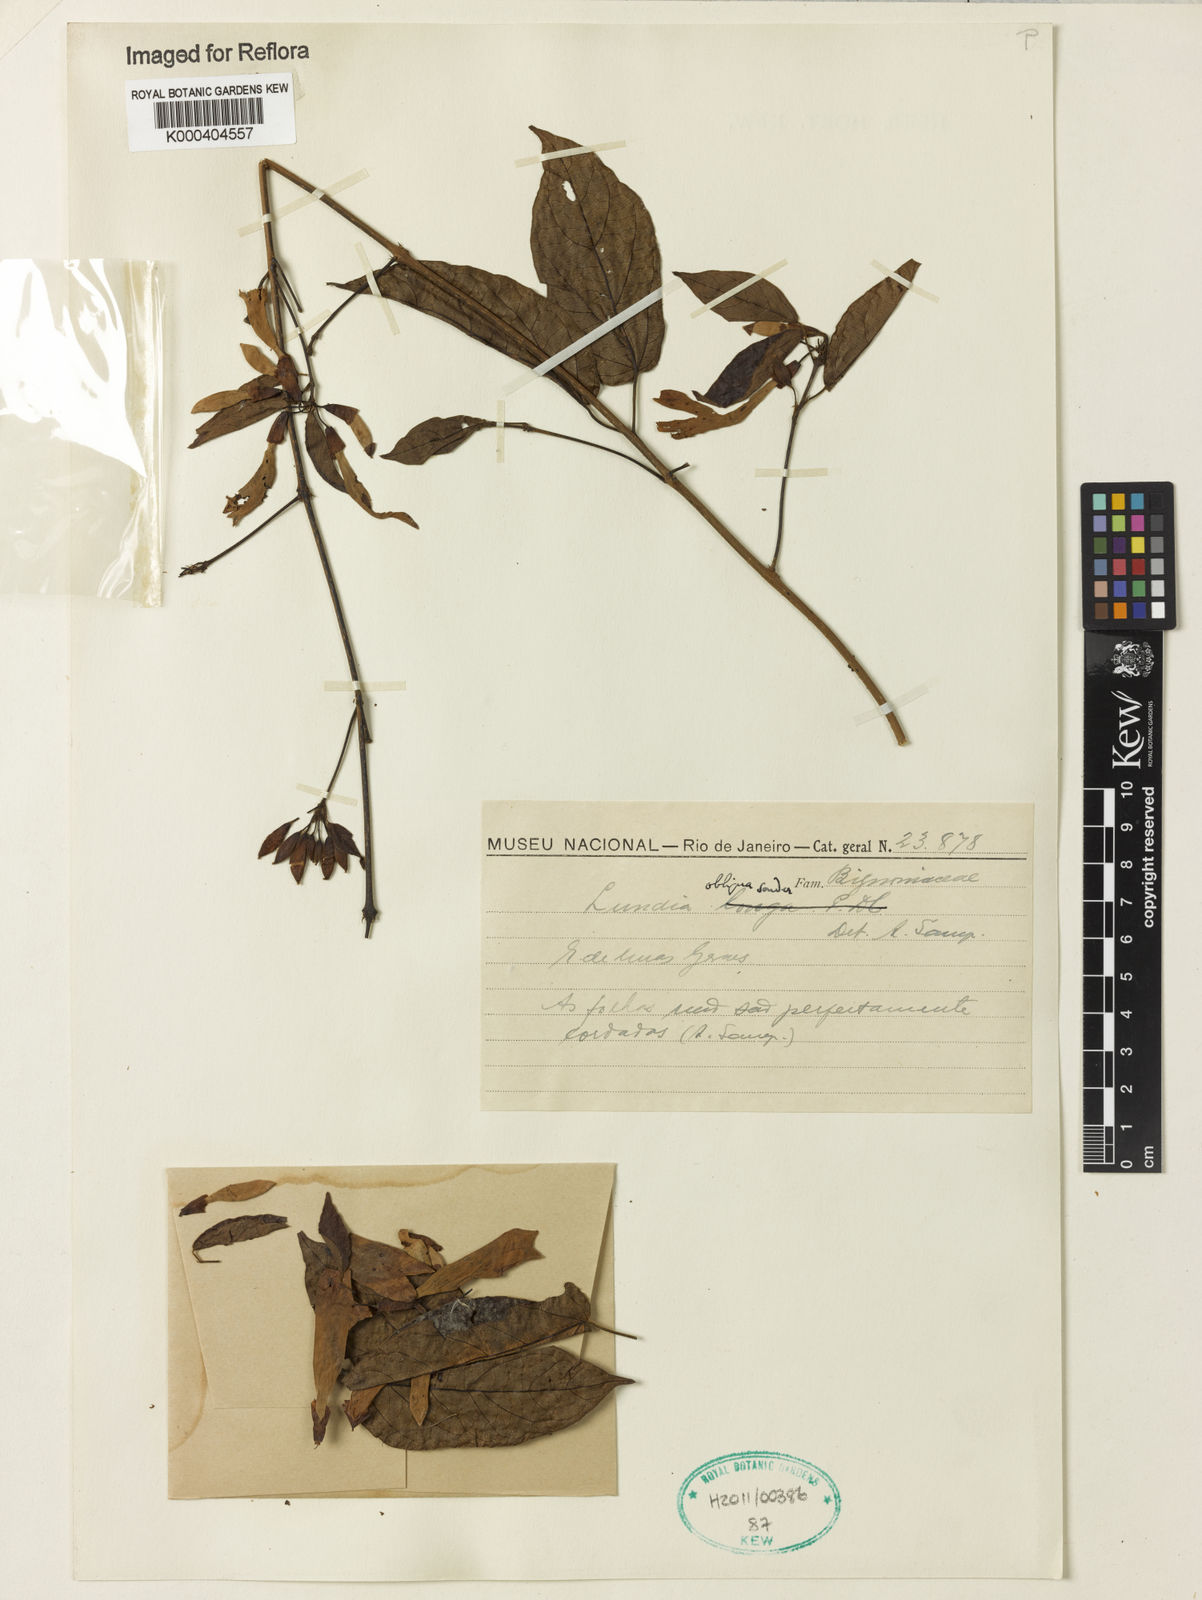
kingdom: Plantae
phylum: Tracheophyta
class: Magnoliopsida
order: Lamiales
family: Bignoniaceae
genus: Lundia
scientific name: Lundia obliqua
